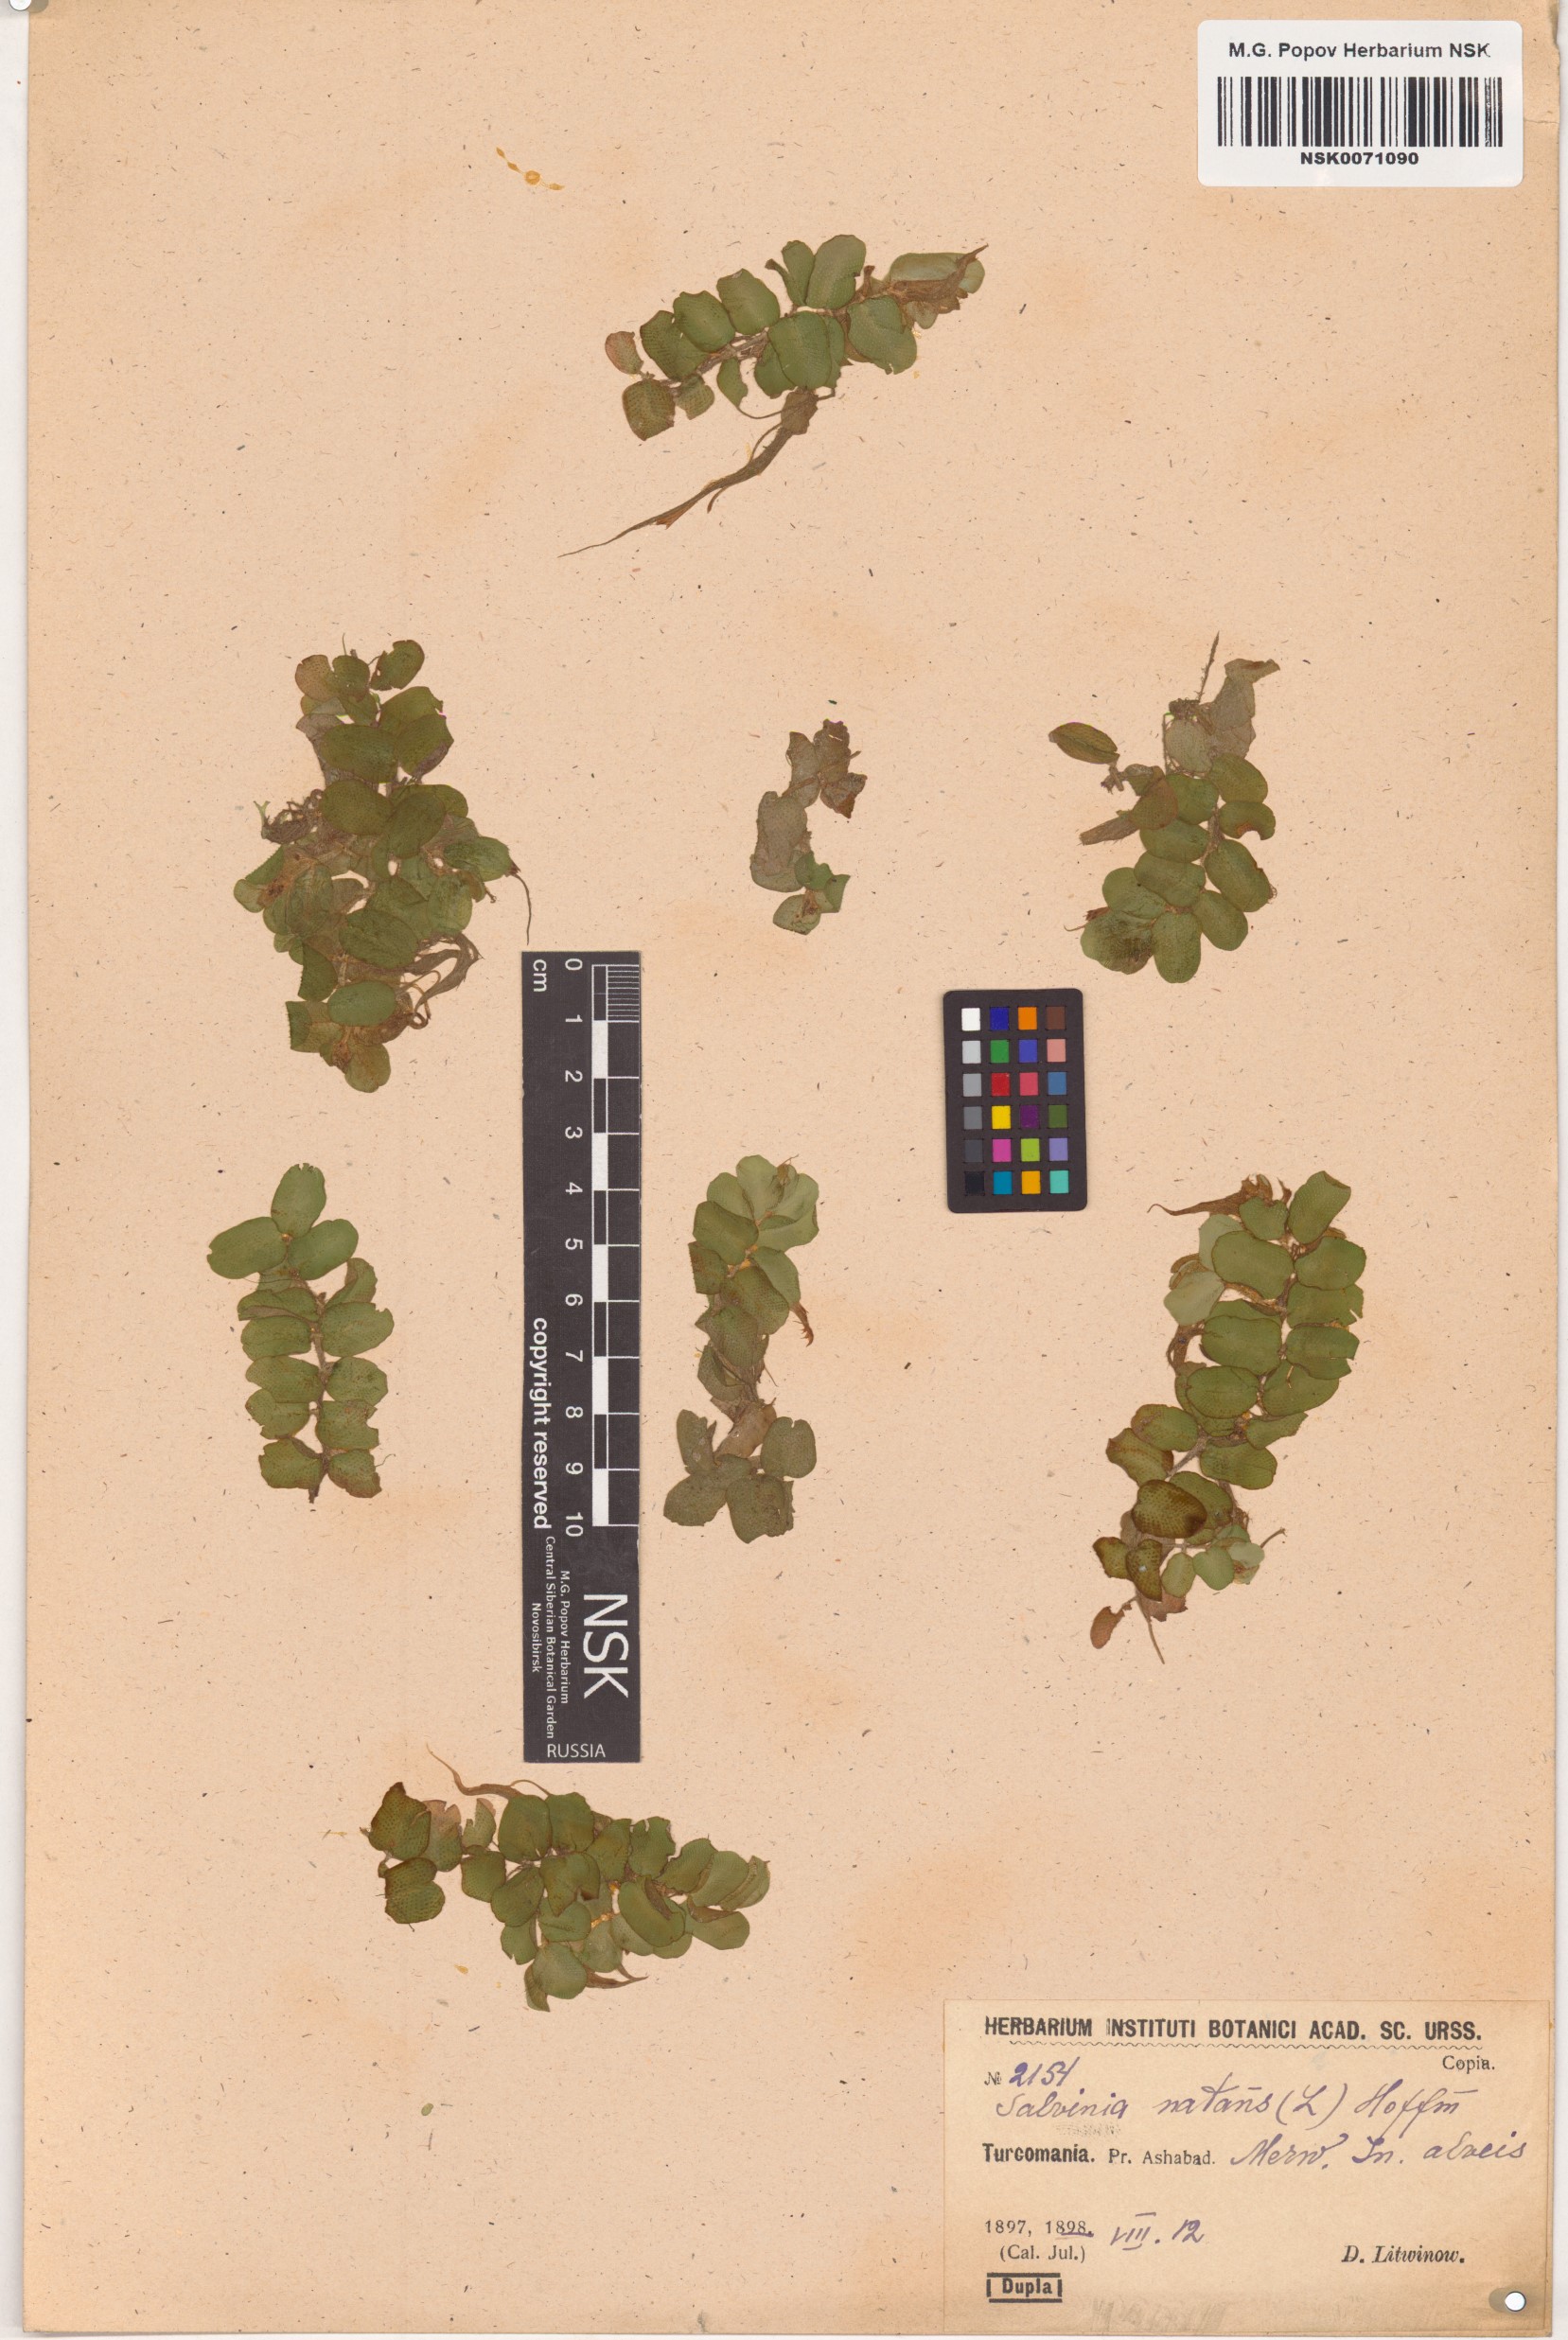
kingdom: Plantae
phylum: Tracheophyta
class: Polypodiopsida
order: Salviniales
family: Salviniaceae
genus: Salvinia
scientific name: Salvinia natans
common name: Floating fern
